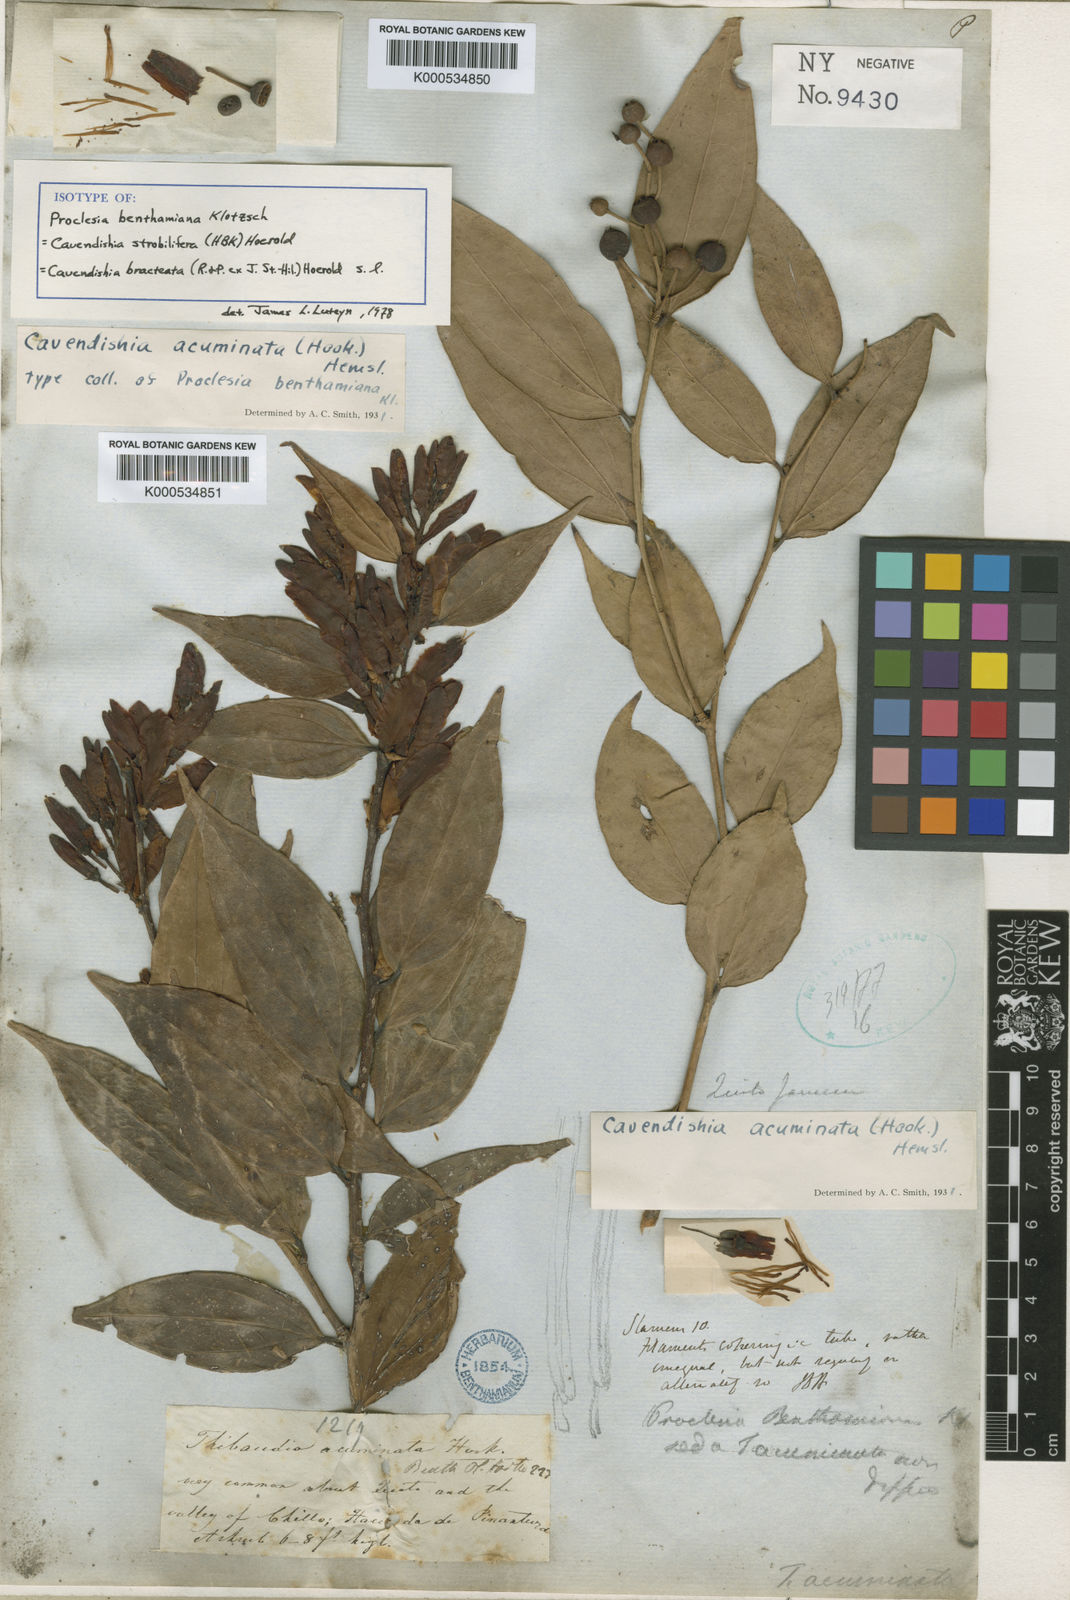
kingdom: Plantae
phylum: Tracheophyta
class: Magnoliopsida
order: Ericales
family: Ericaceae
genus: Cavendishia
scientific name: Cavendishia bracteata
